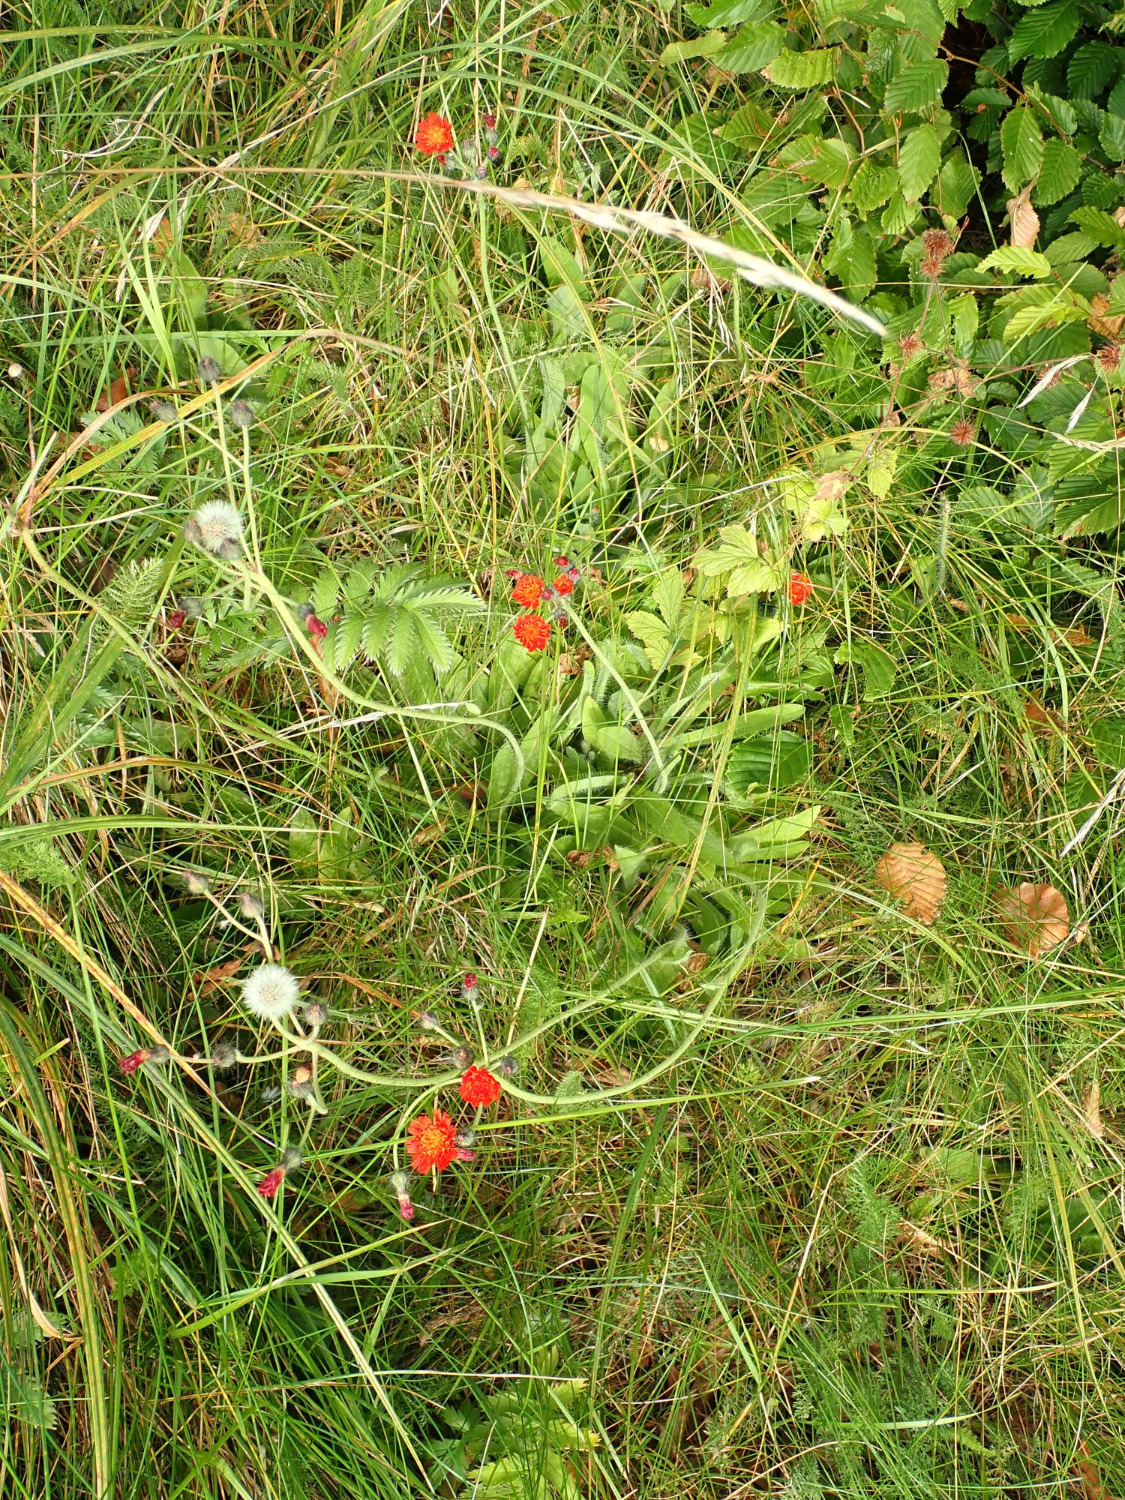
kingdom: Plantae
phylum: Tracheophyta
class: Magnoliopsida
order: Asterales
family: Asteraceae
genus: Pilosella
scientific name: Pilosella aurantiaca
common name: Pomerans-høgeurt
